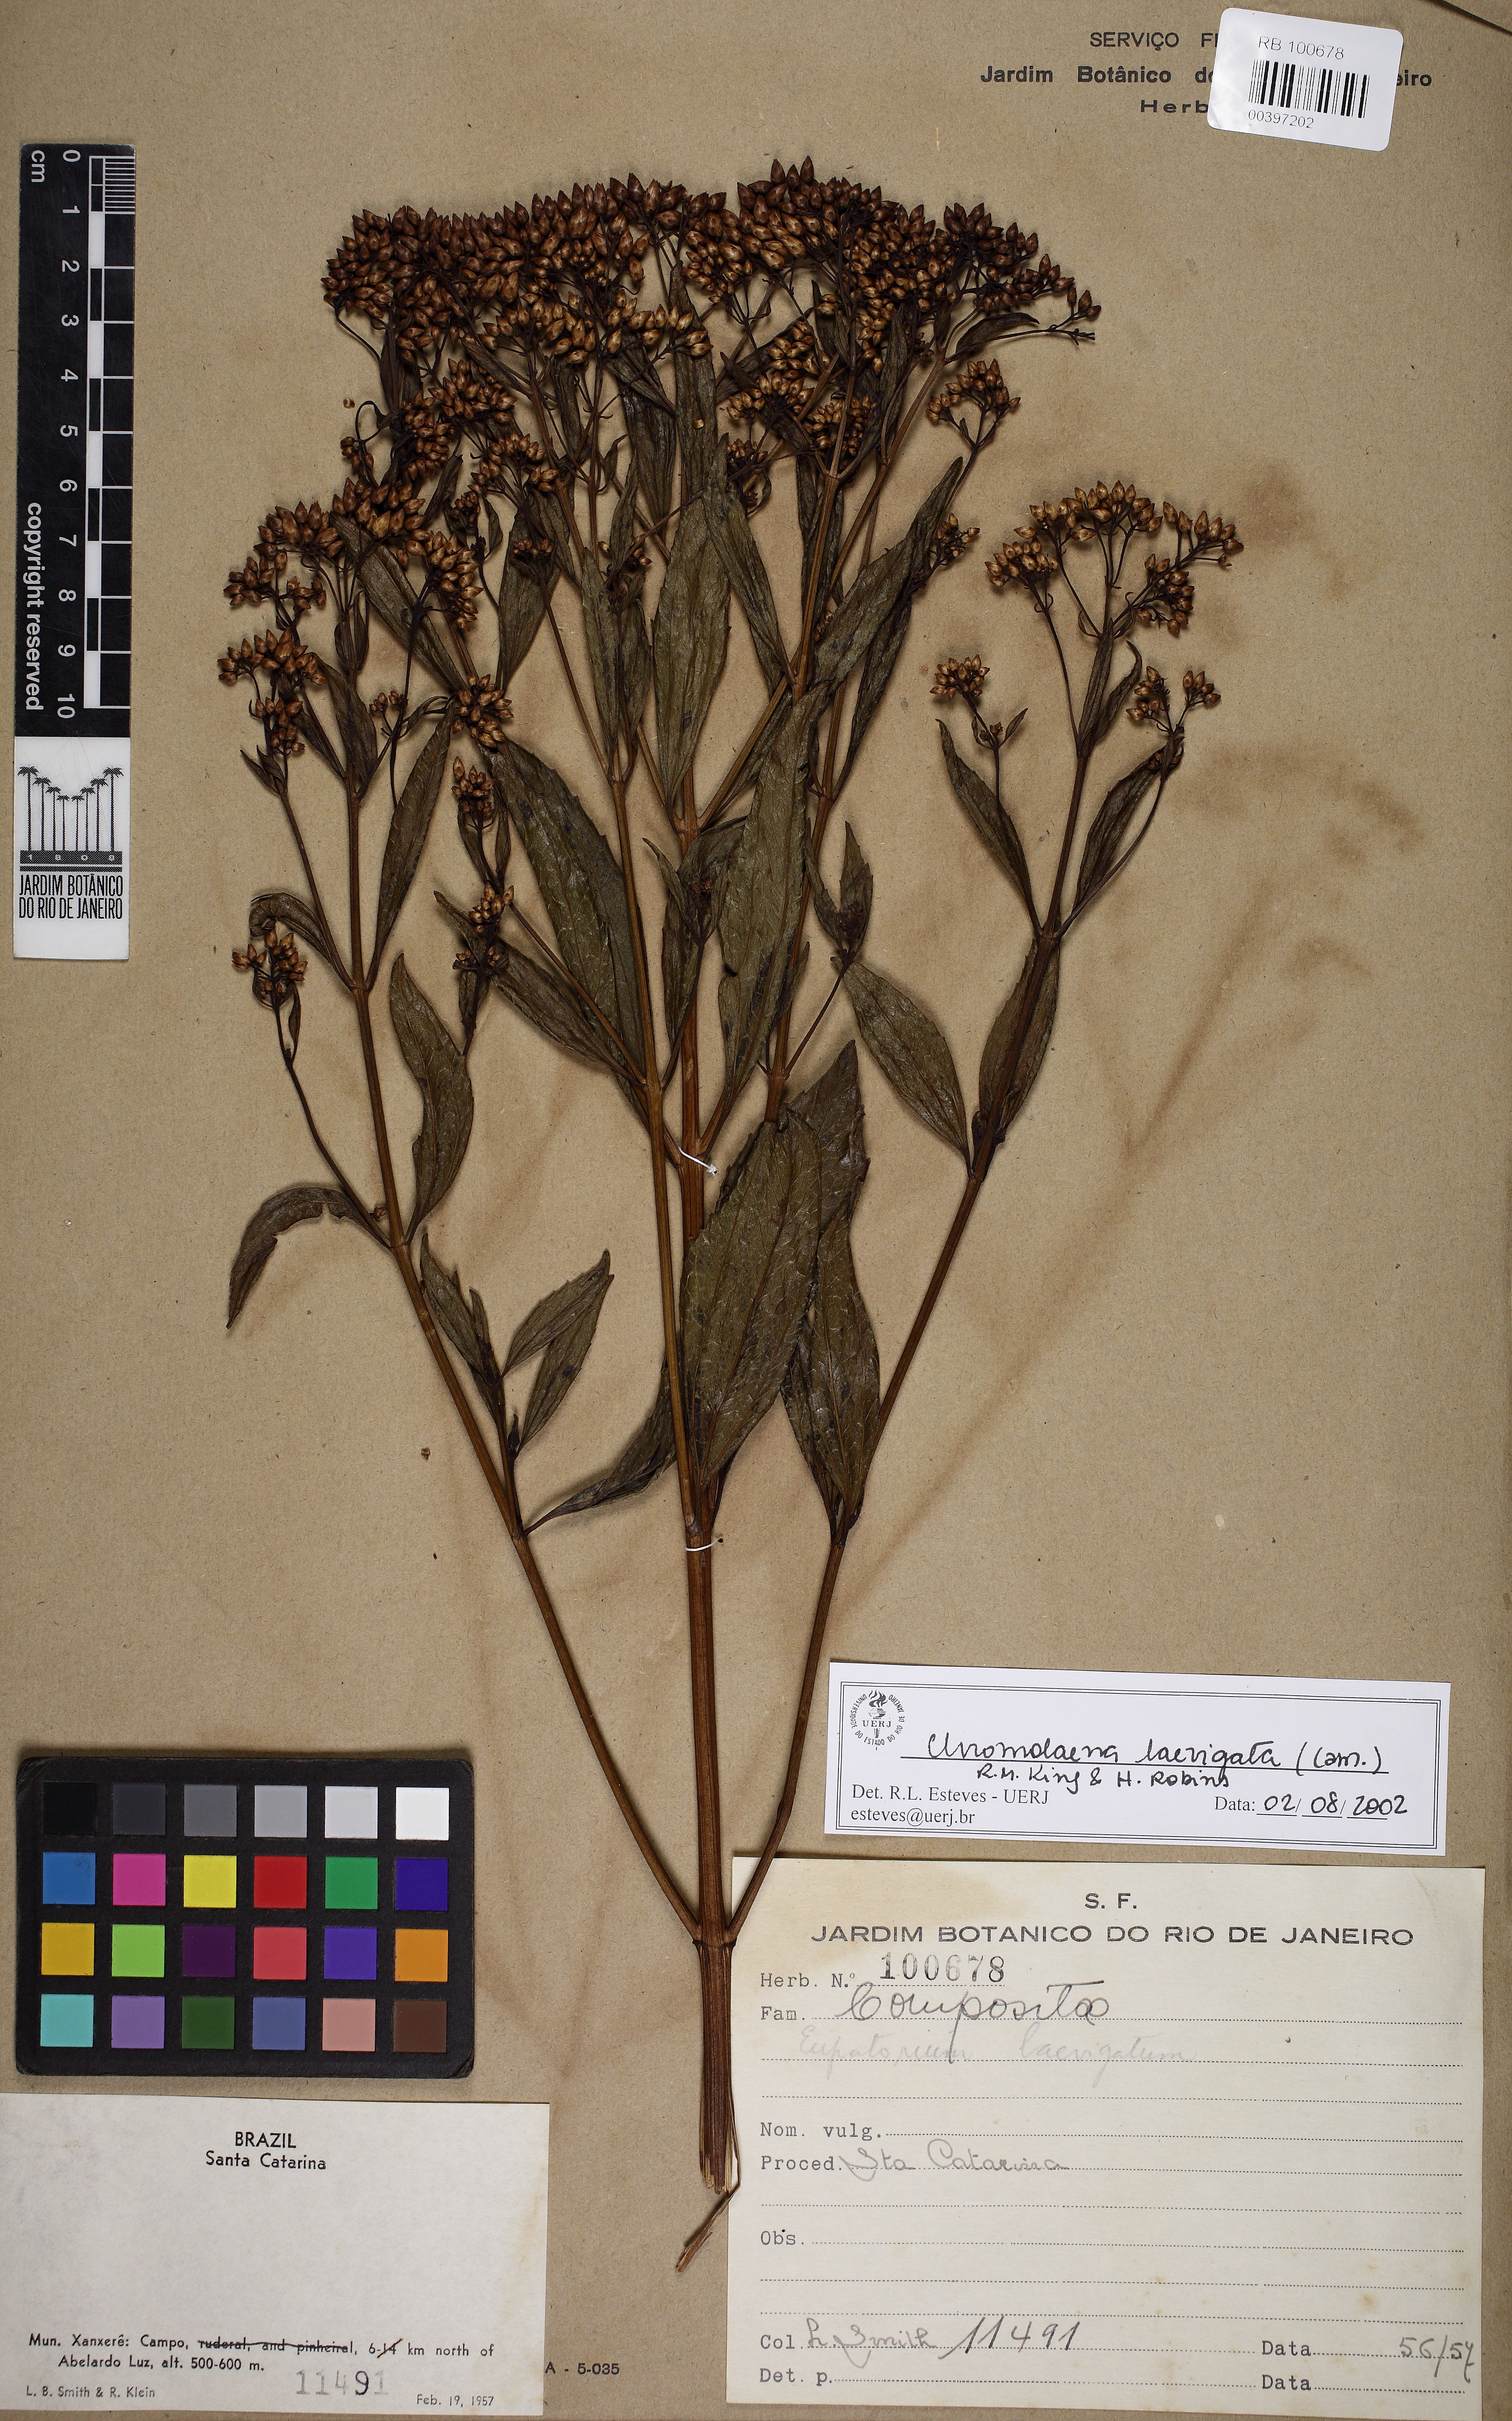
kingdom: Plantae
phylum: Tracheophyta
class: Magnoliopsida
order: Asterales
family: Asteraceae
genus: Chromolaena
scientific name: Chromolaena laevigata
